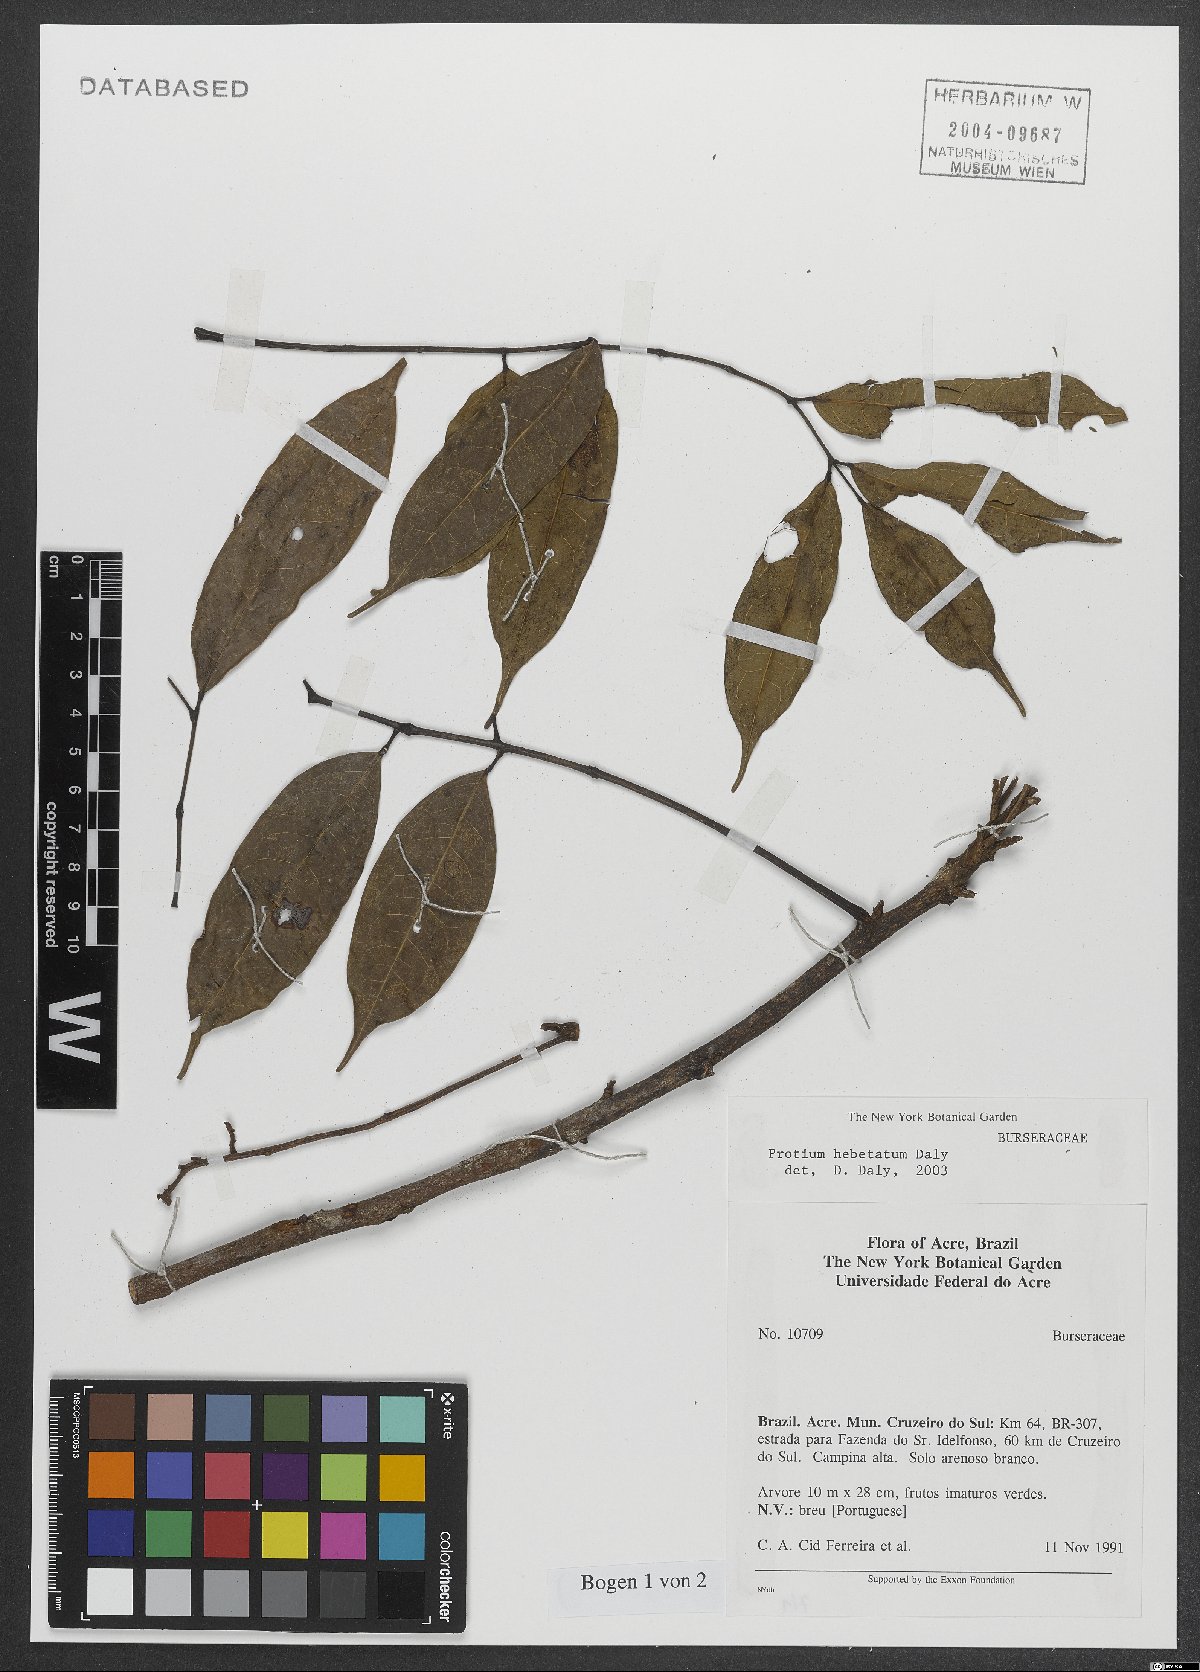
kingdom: Plantae
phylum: Tracheophyta
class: Magnoliopsida
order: Sapindales
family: Burseraceae
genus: Protium
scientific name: Protium hebetatum
